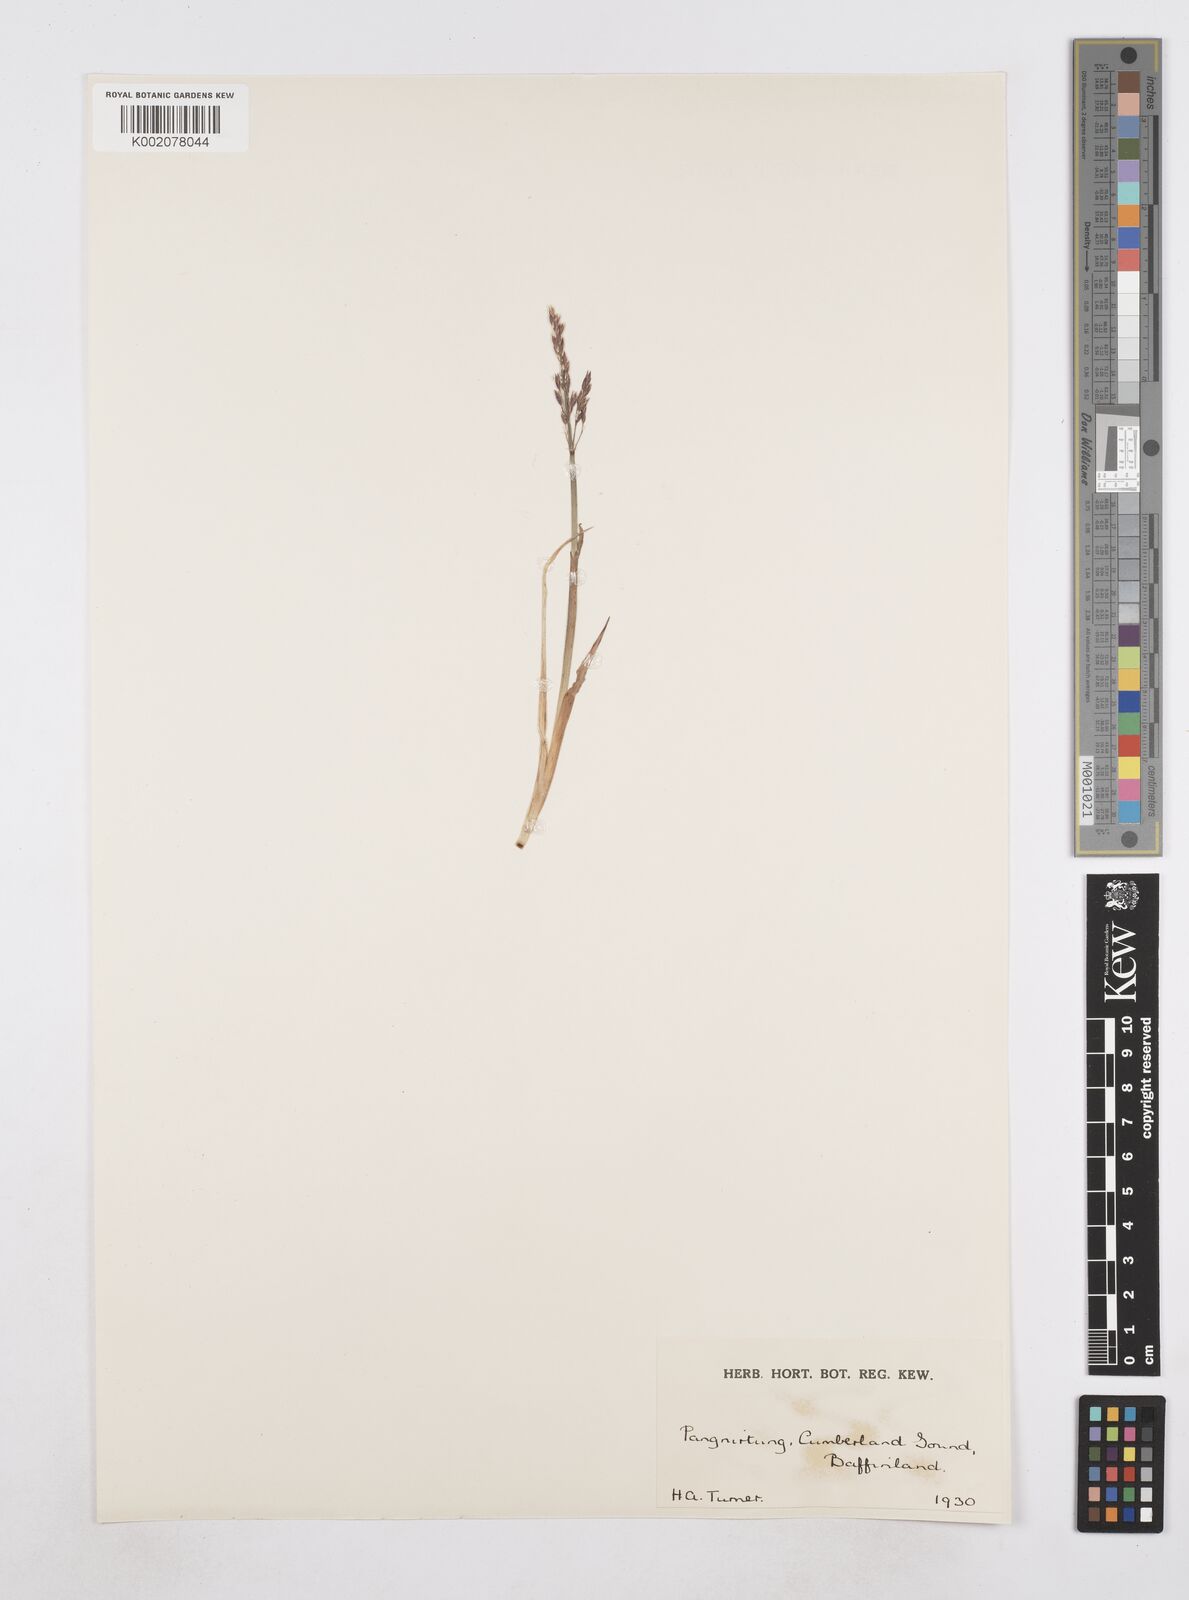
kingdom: Plantae
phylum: Tracheophyta
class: Liliopsida
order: Poales
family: Poaceae
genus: Poa
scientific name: Poa
